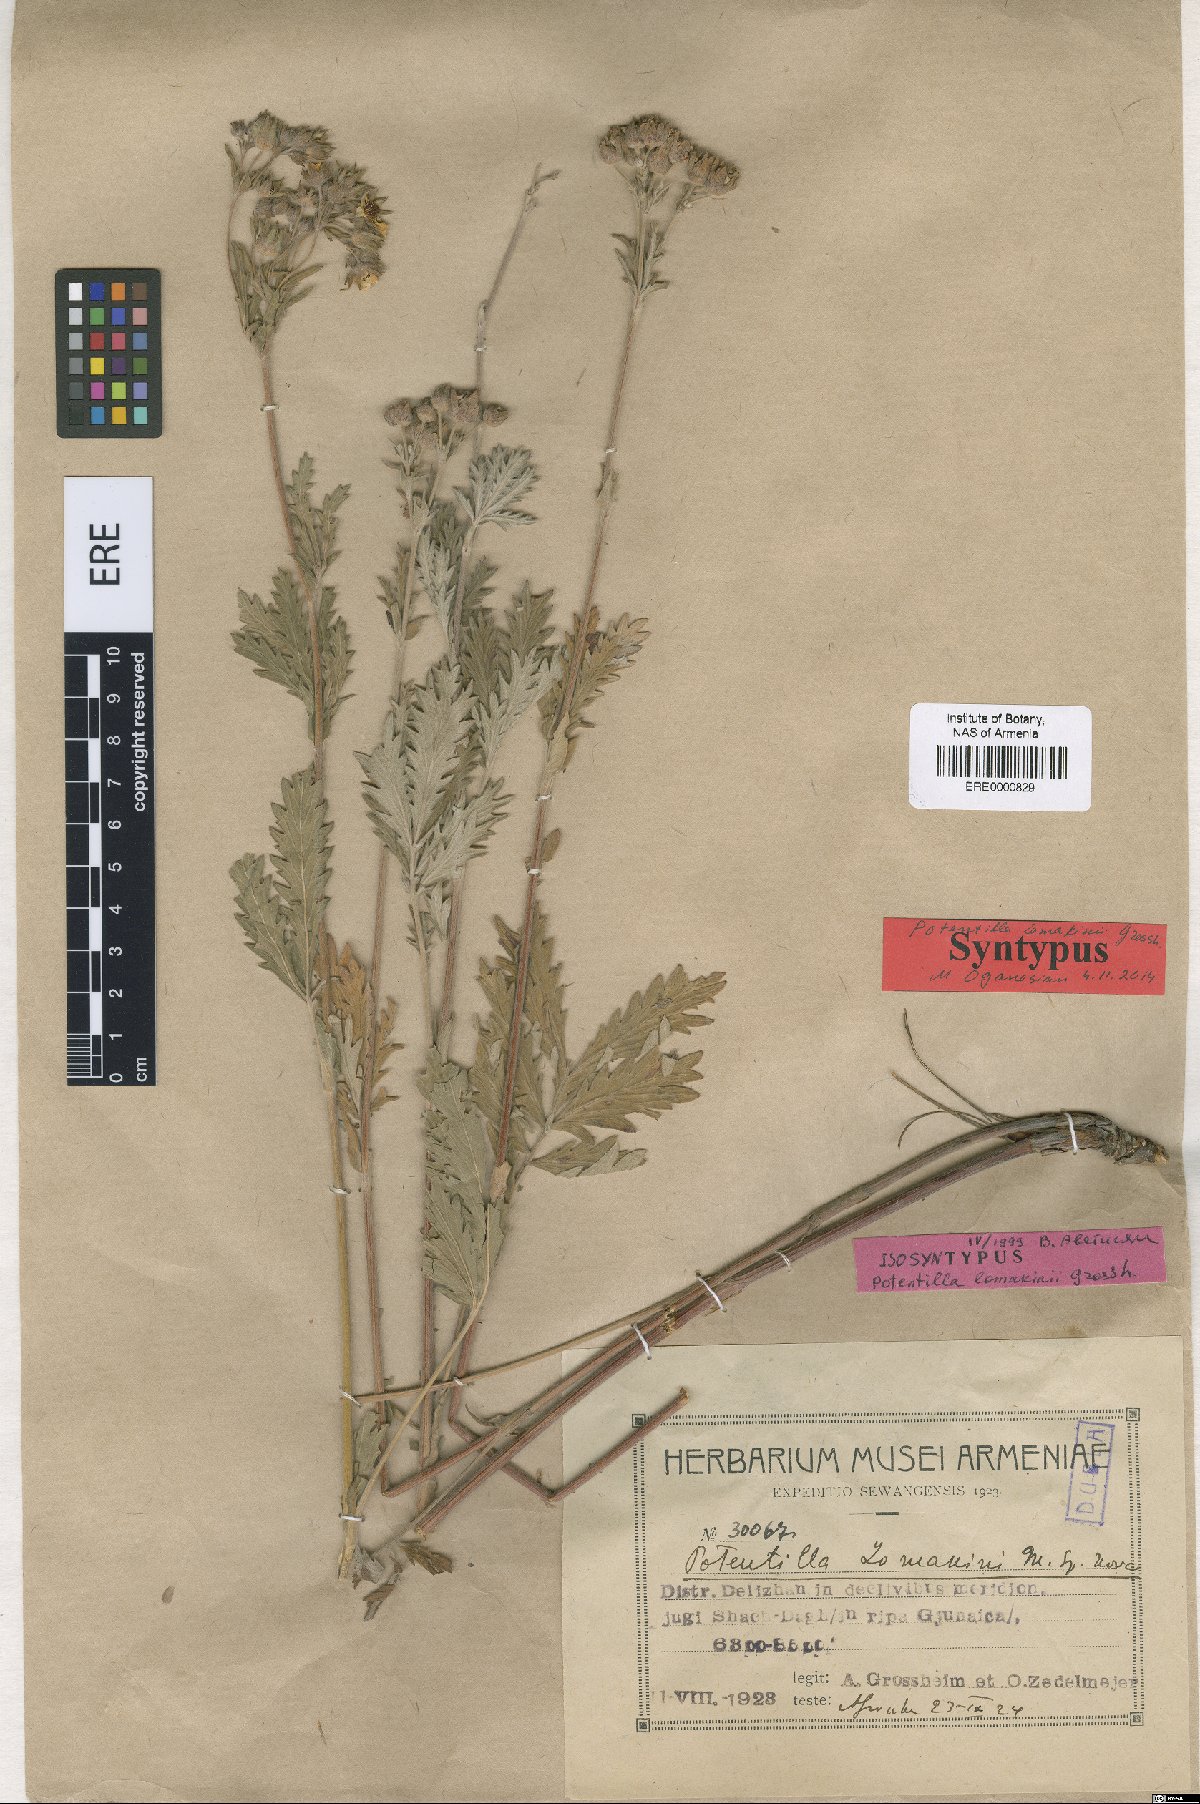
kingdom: Plantae
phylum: Tracheophyta
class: Magnoliopsida
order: Rosales
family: Rosaceae
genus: Potentilla
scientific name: Potentilla lomakinii
